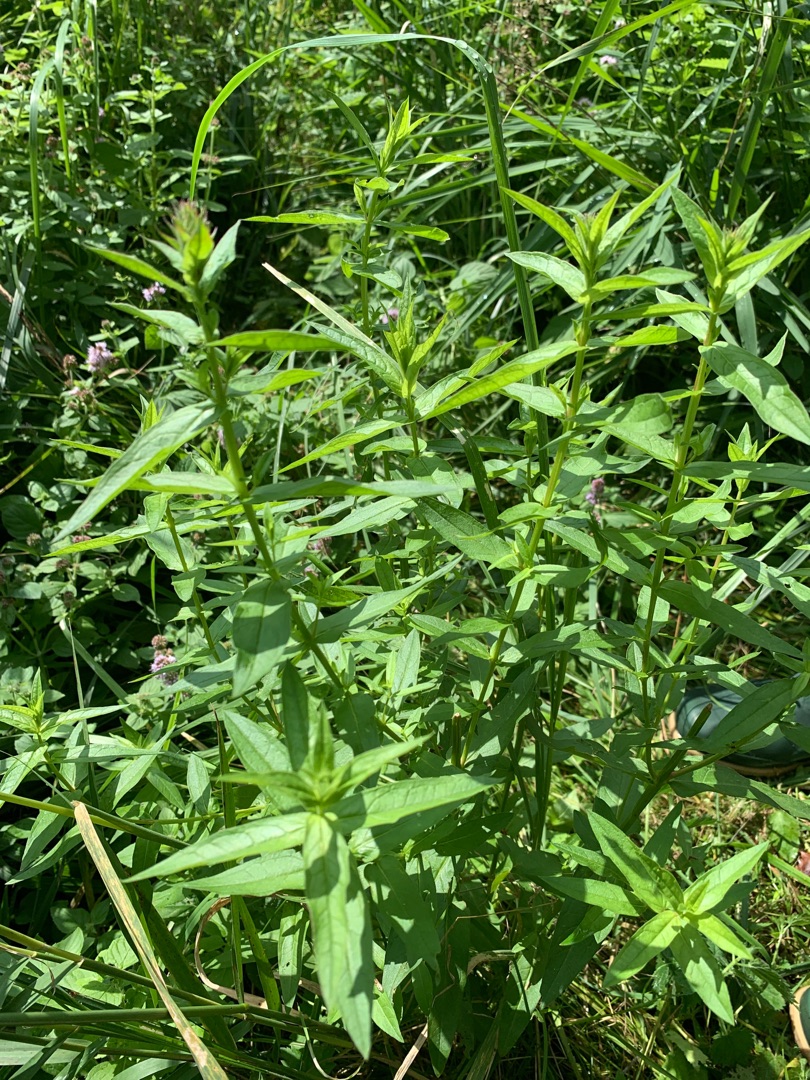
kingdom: Plantae
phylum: Tracheophyta
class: Magnoliopsida
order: Myrtales
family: Lythraceae
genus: Lythrum
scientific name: Lythrum salicaria
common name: Kattehale
